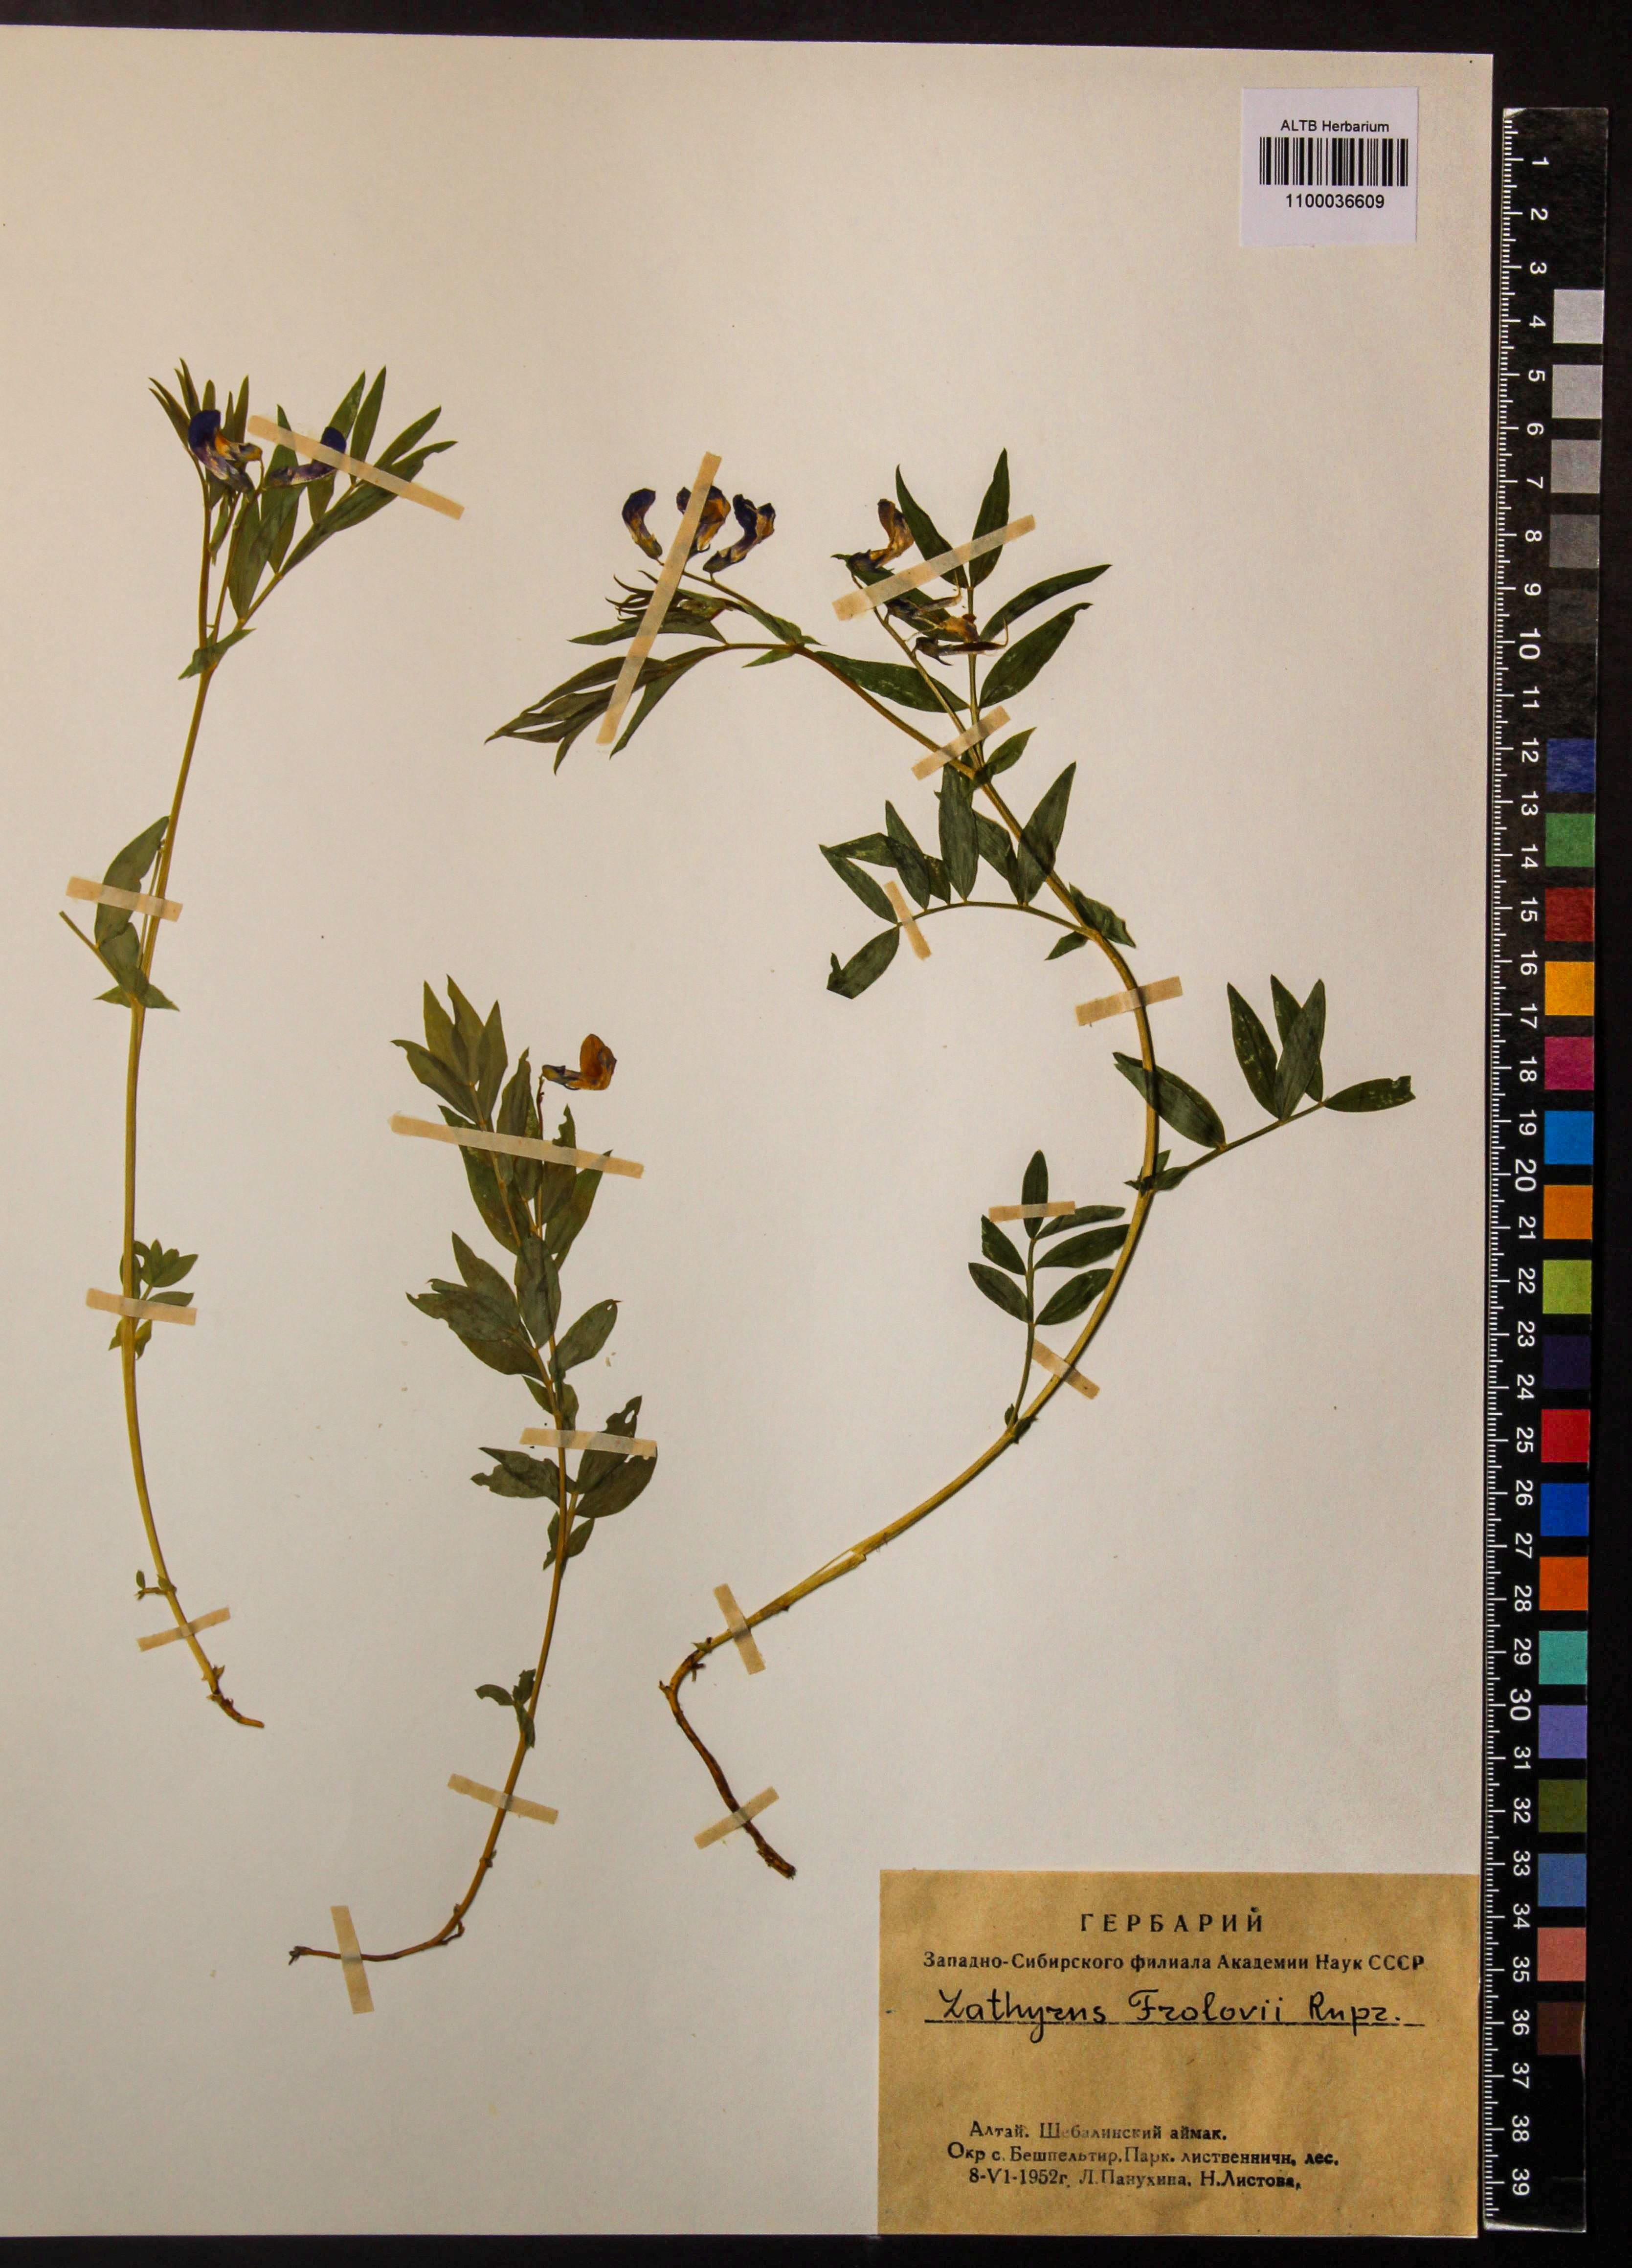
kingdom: Plantae
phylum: Tracheophyta
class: Magnoliopsida
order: Fabales
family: Fabaceae
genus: Lathyrus
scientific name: Lathyrus frolovii
